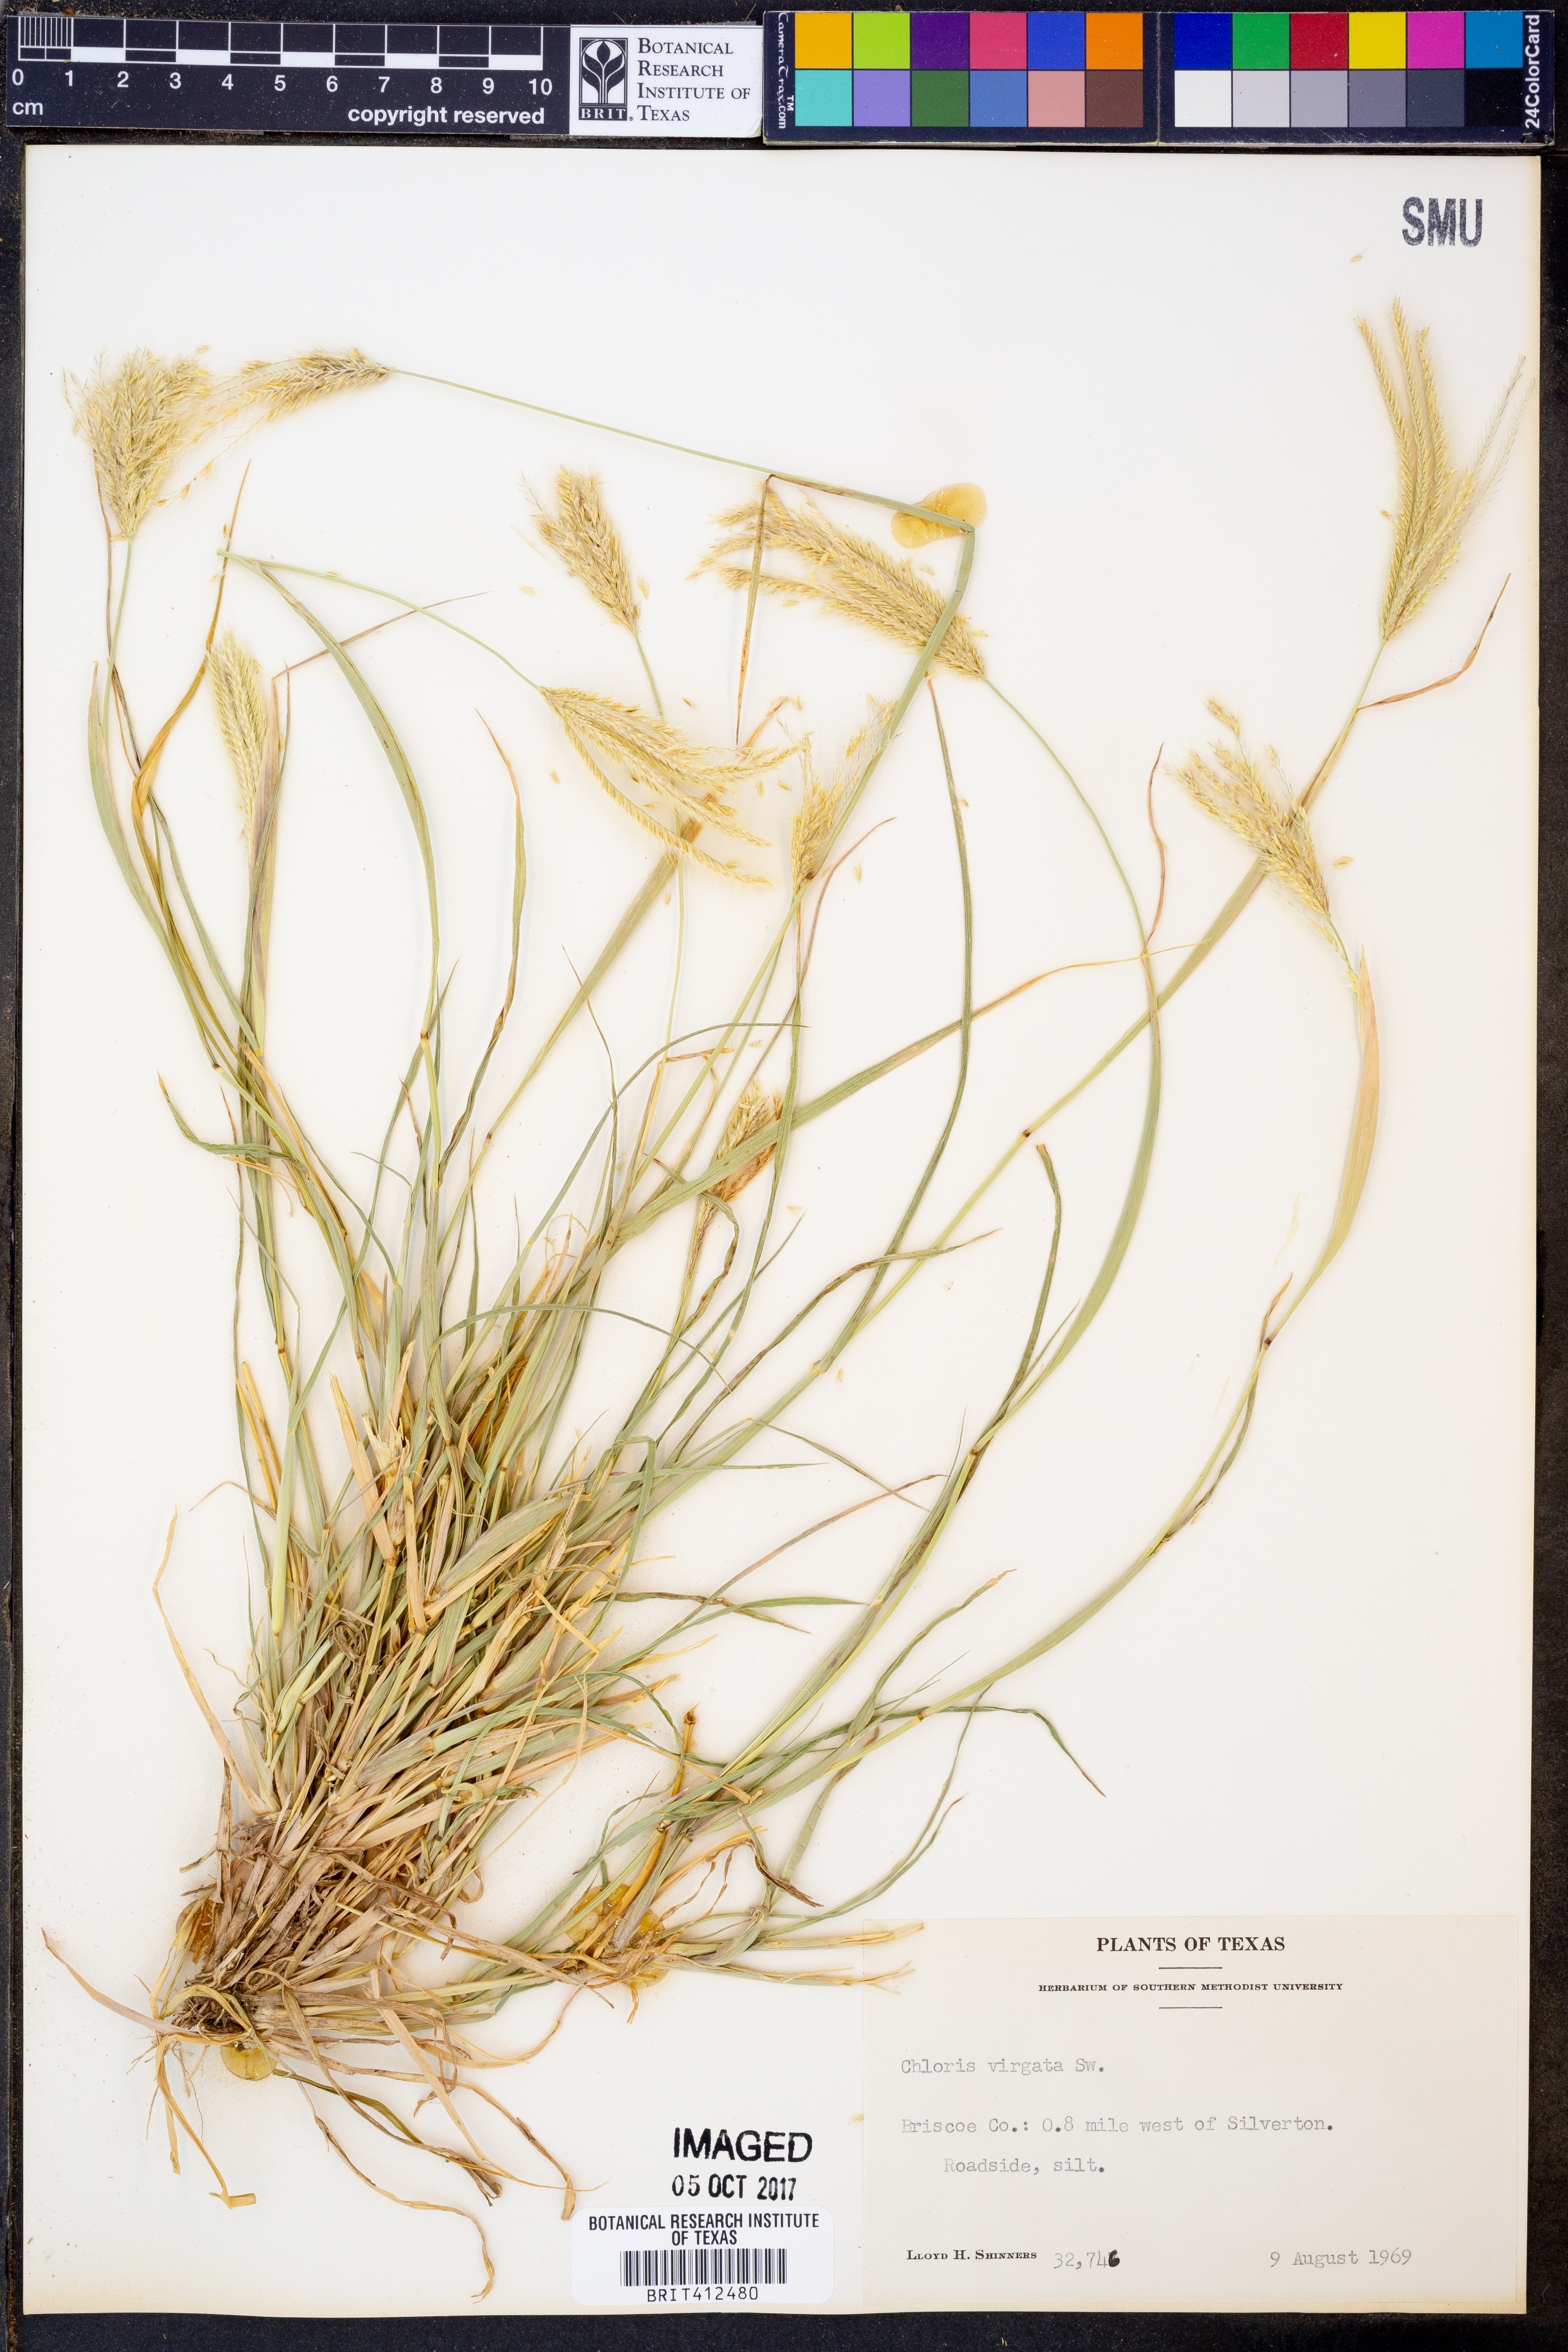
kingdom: Plantae
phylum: Tracheophyta
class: Liliopsida
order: Poales
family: Poaceae
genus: Chloris
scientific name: Chloris virgata
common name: Feathery rhodes-grass
